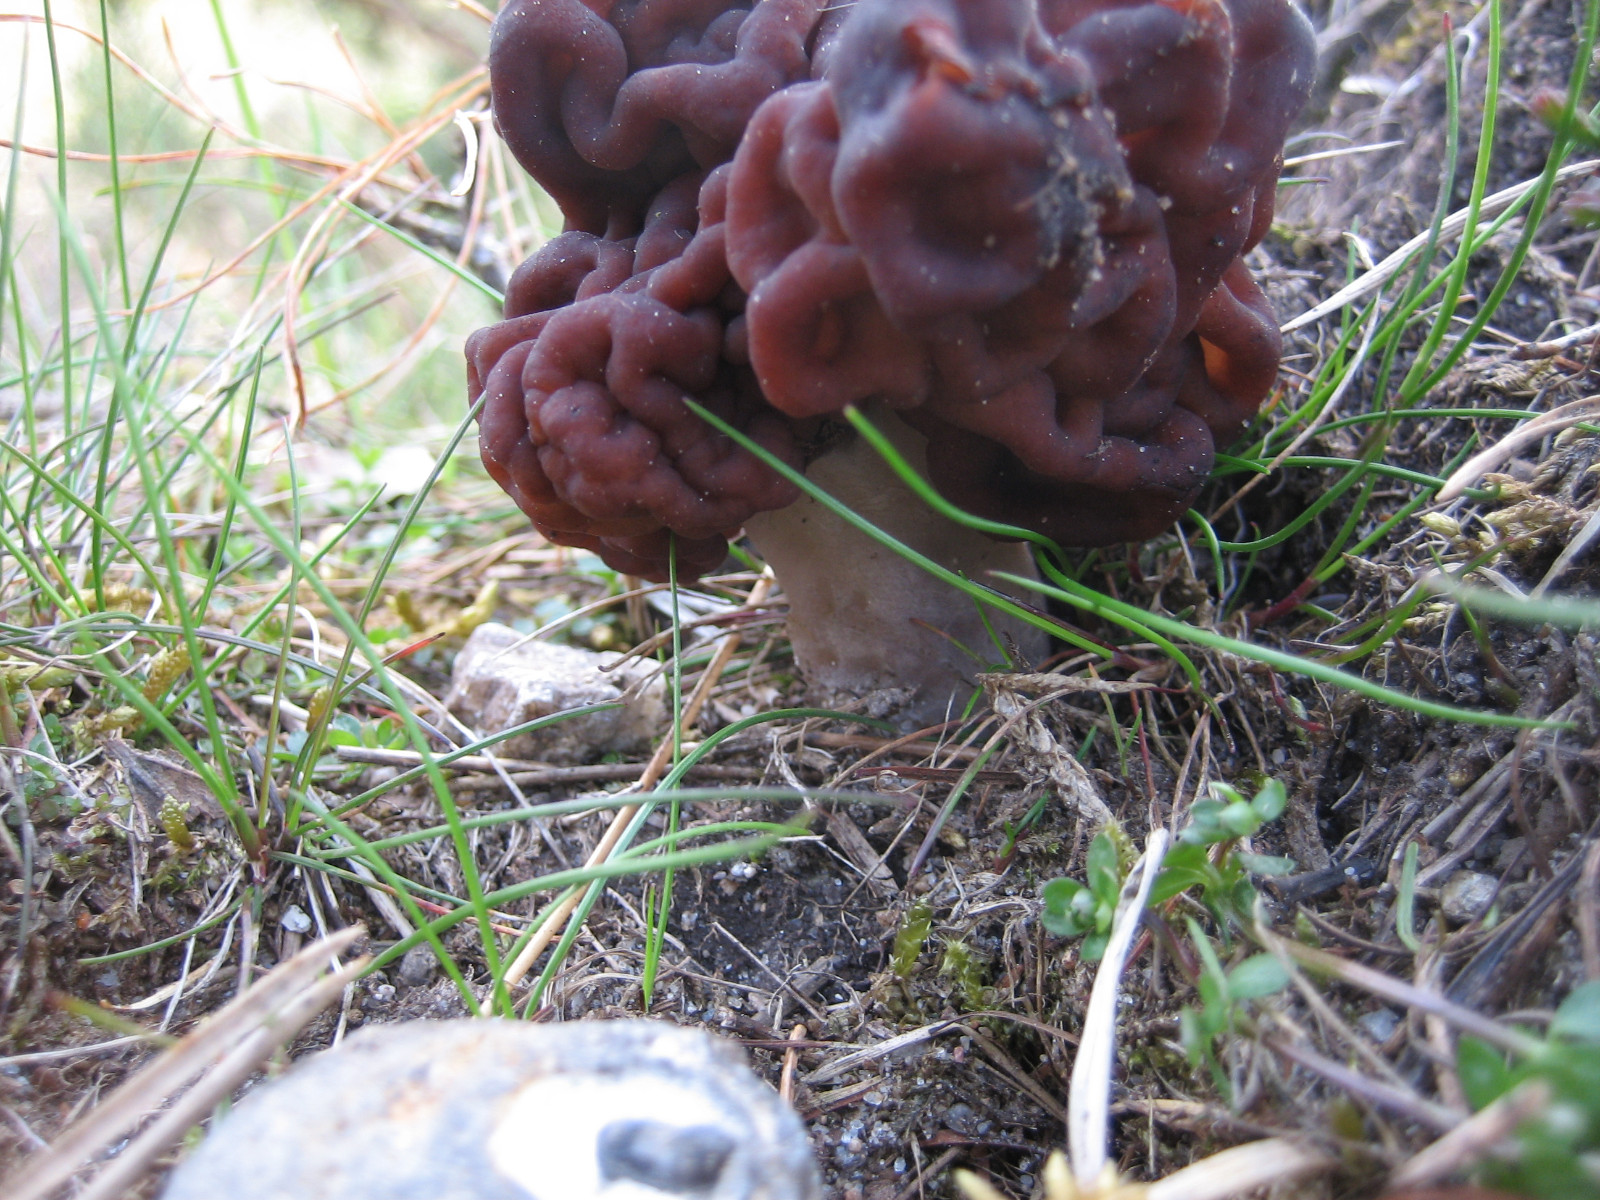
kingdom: Fungi
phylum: Ascomycota
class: Pezizomycetes
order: Pezizales
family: Discinaceae
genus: Gyromitra
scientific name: Gyromitra esculenta
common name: ægte stenmorkel
